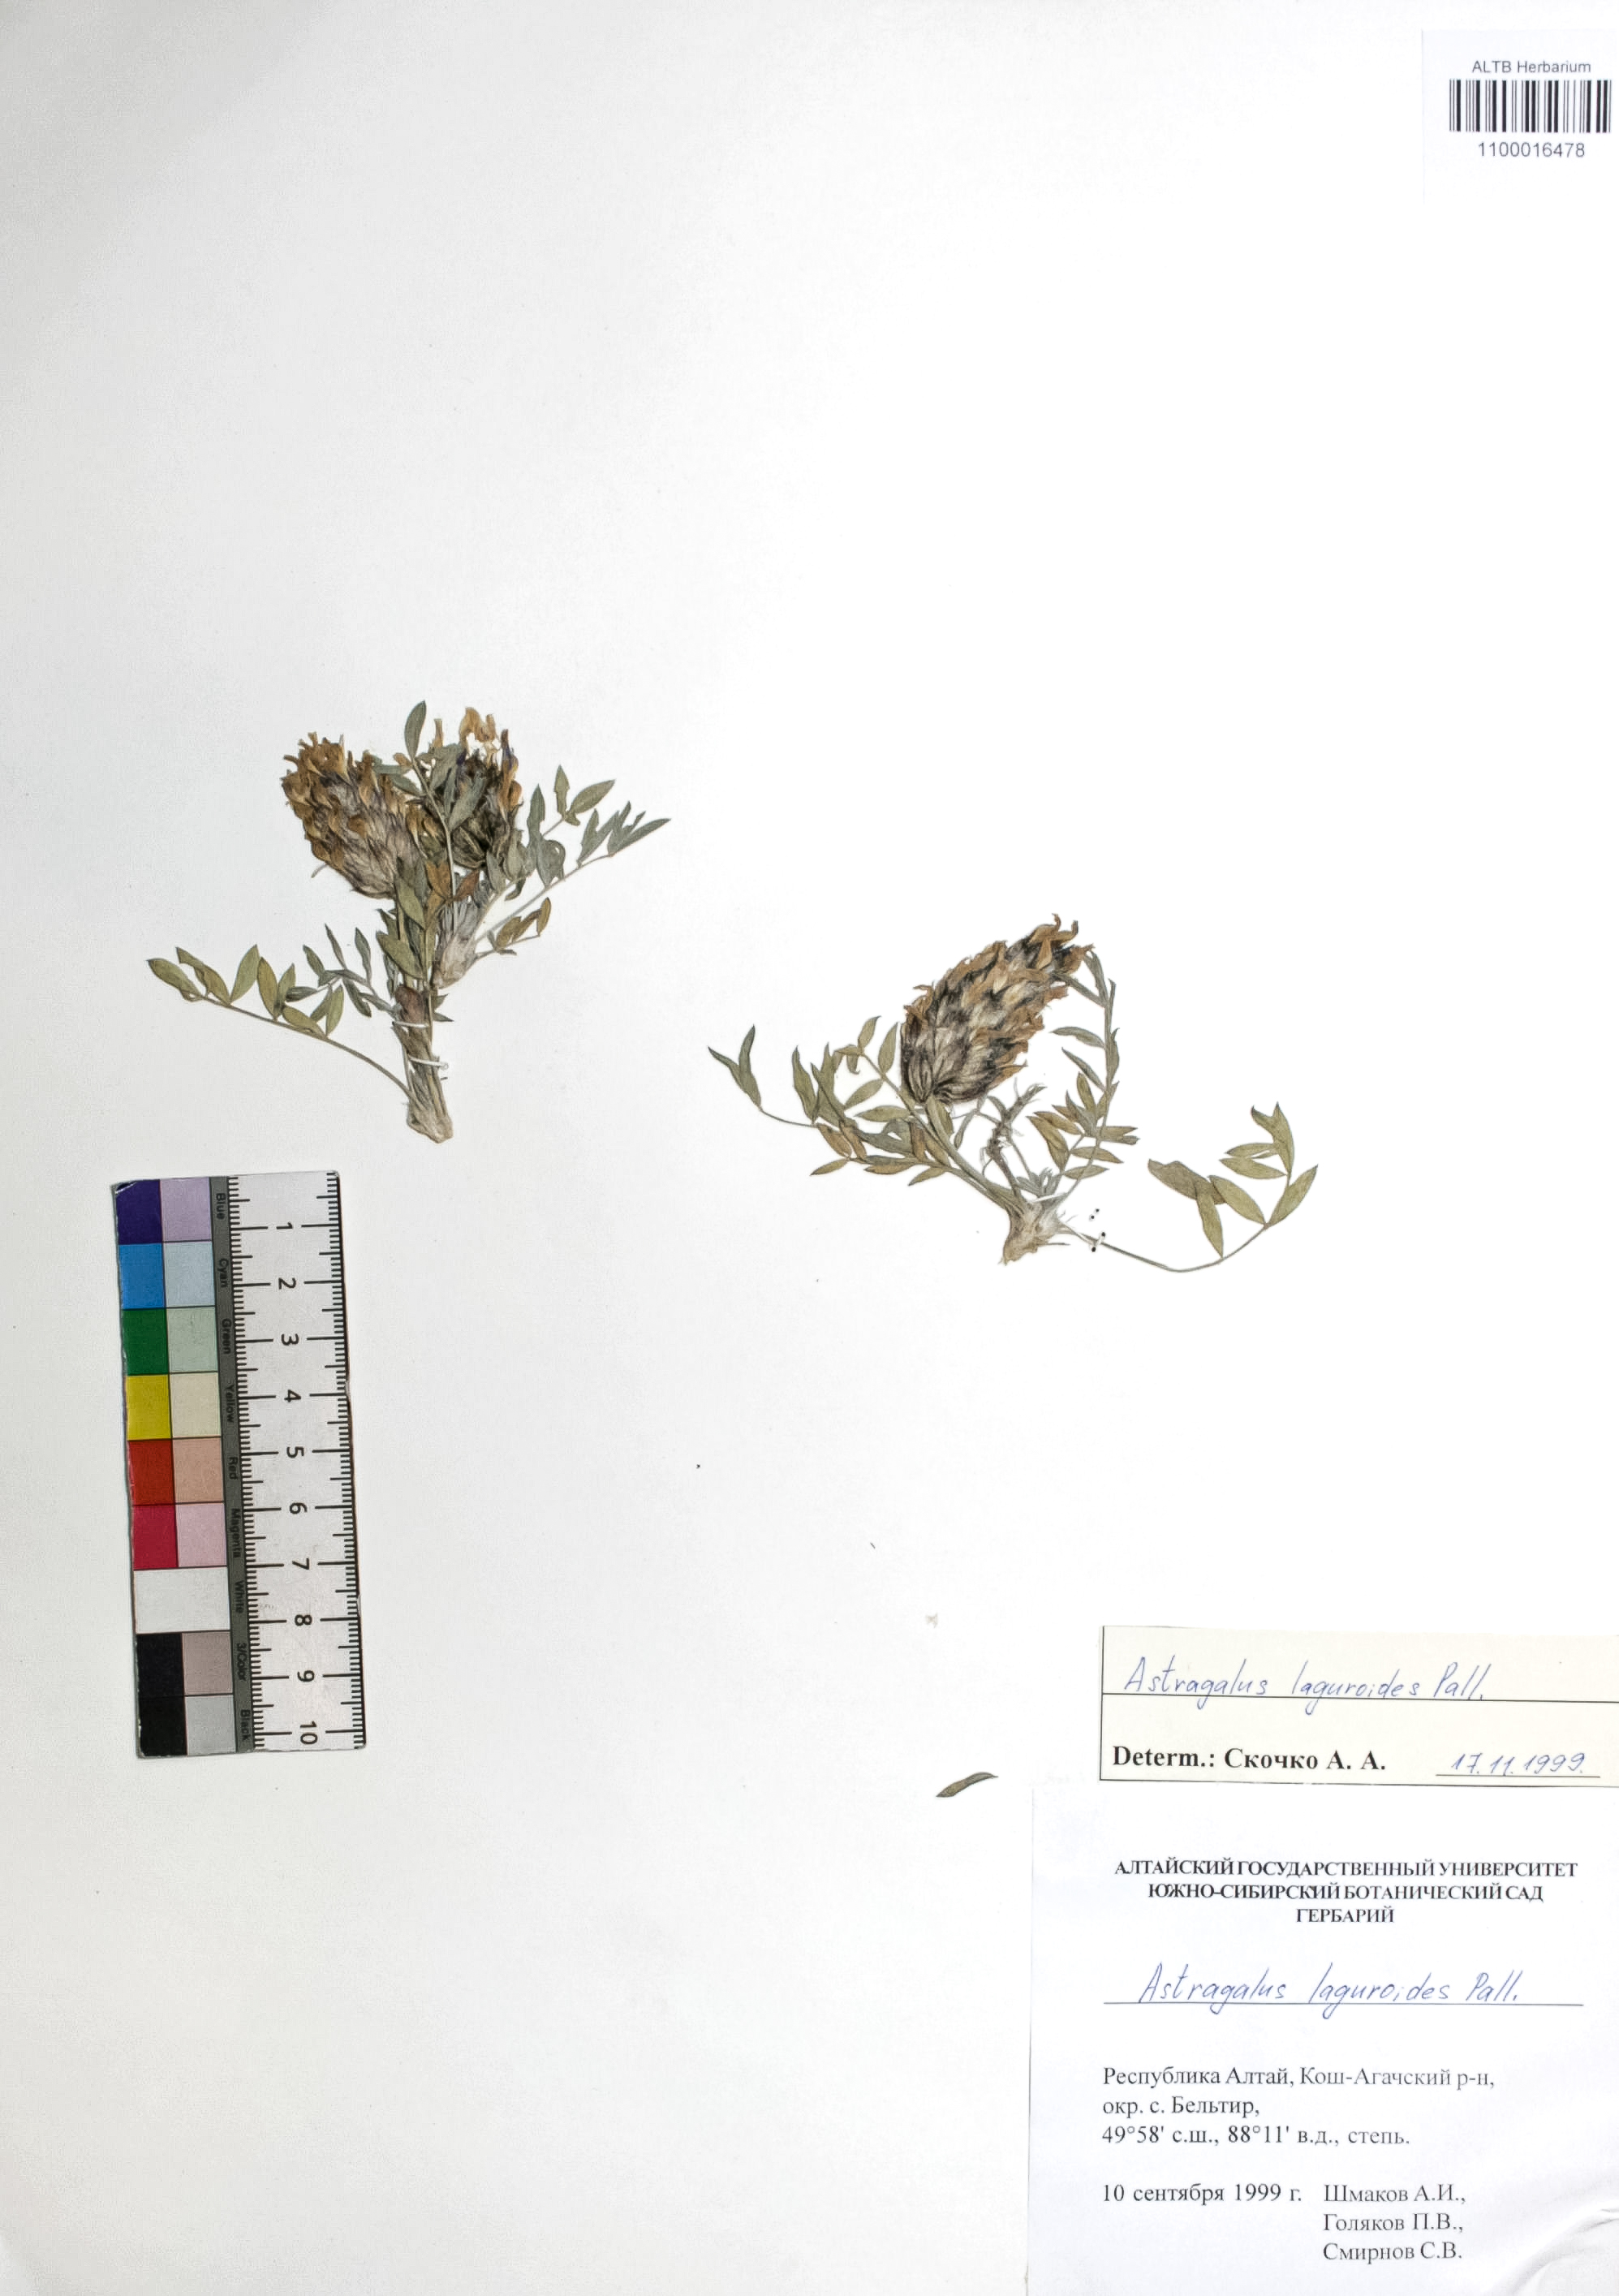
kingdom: Plantae
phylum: Tracheophyta
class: Magnoliopsida
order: Fabales
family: Fabaceae
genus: Astragalus
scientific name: Astragalus laguroides
